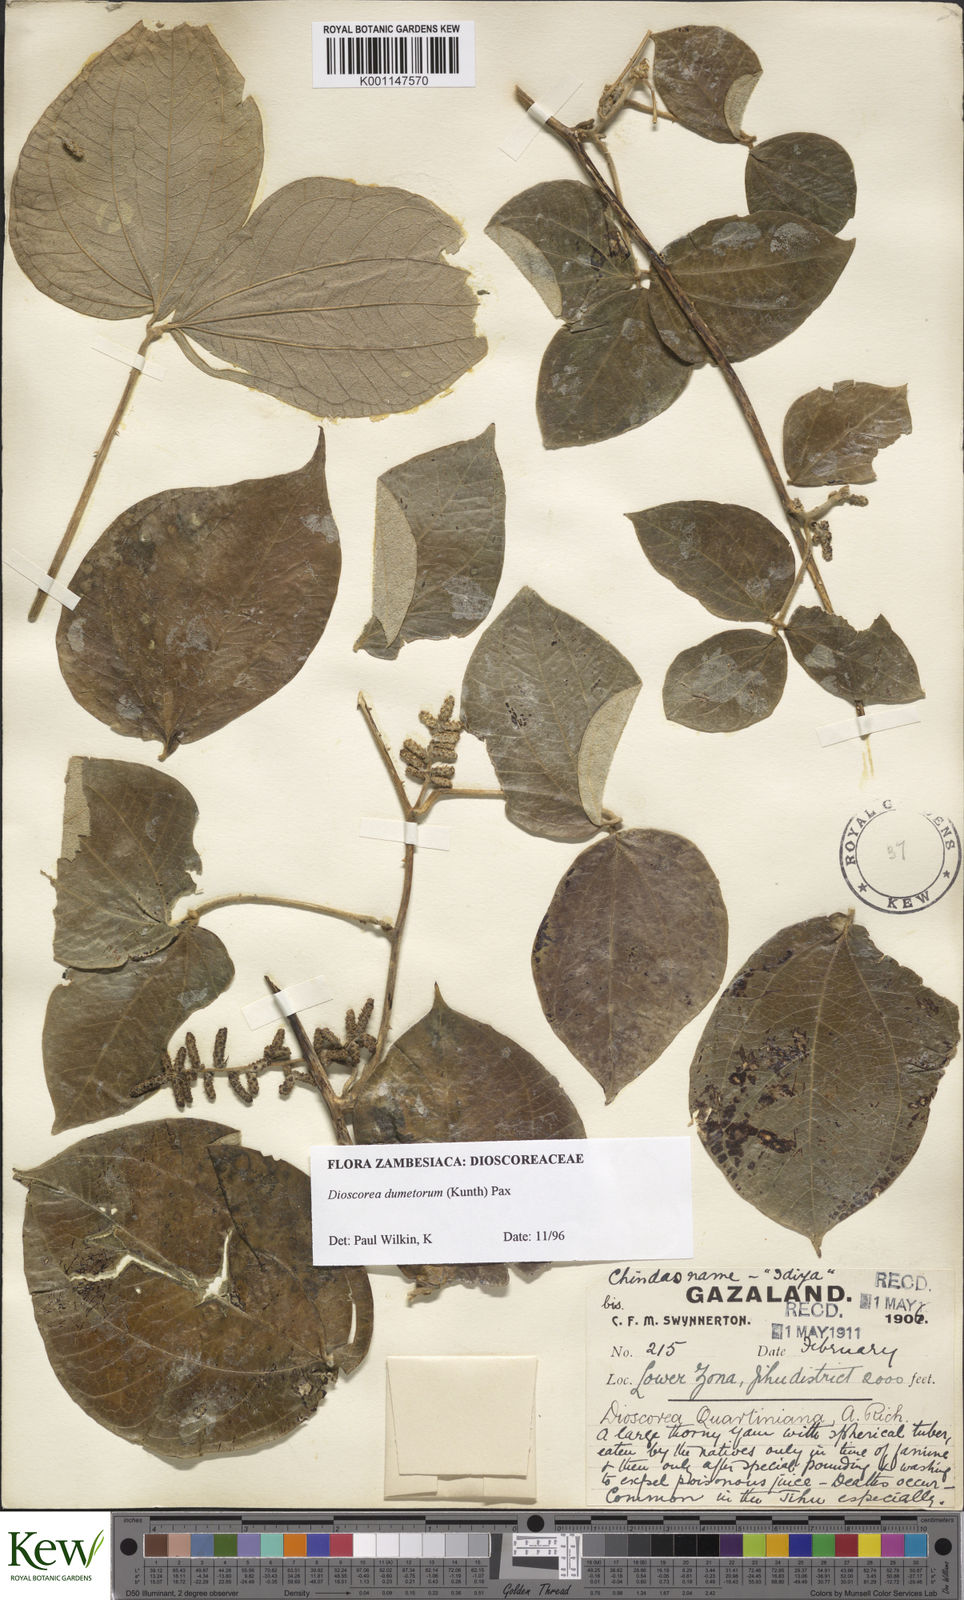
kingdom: Plantae
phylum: Tracheophyta
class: Liliopsida
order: Dioscoreales
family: Dioscoreaceae
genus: Dioscorea
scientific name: Dioscorea dumetorum
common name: African bitter yam
